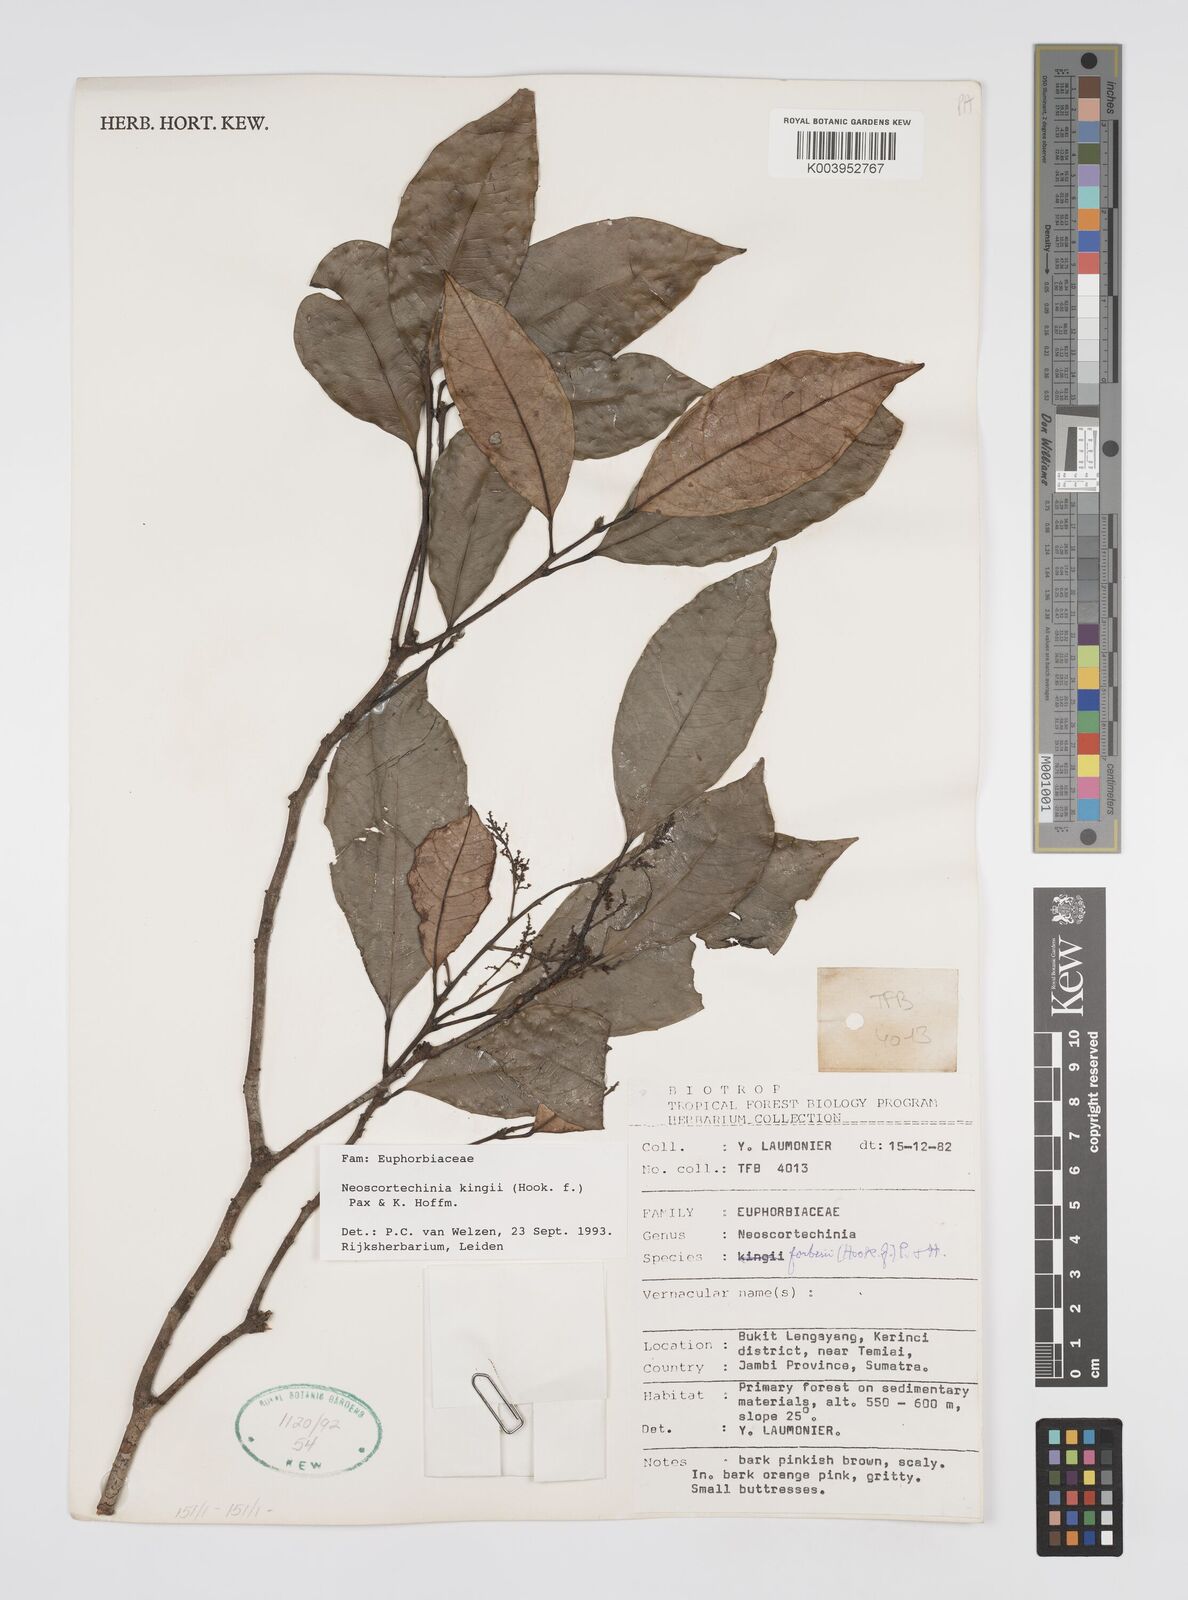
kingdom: Plantae
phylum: Tracheophyta
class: Magnoliopsida
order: Malpighiales
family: Euphorbiaceae
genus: Neoscortechinia
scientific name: Neoscortechinia kingii
